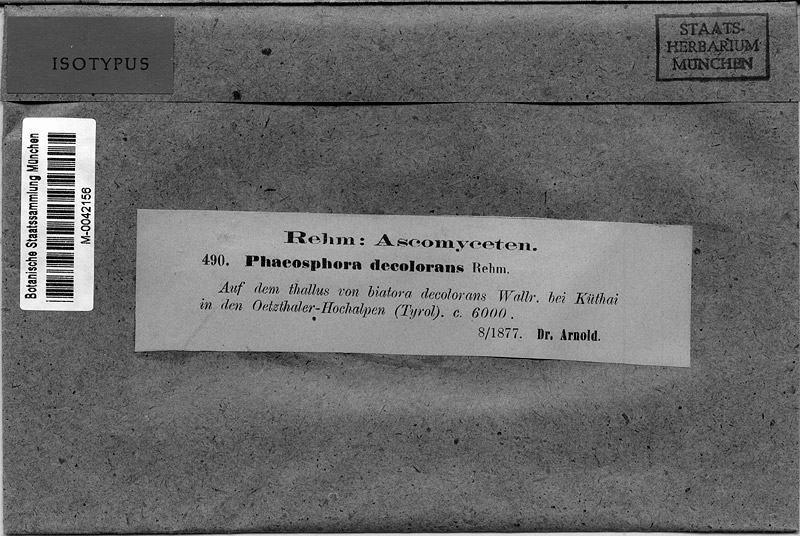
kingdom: Fungi
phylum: Ascomycota
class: Eurotiomycetes
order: Verrucariales
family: Verrucariaceae
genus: Merismatium
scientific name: Merismatium decolorans
